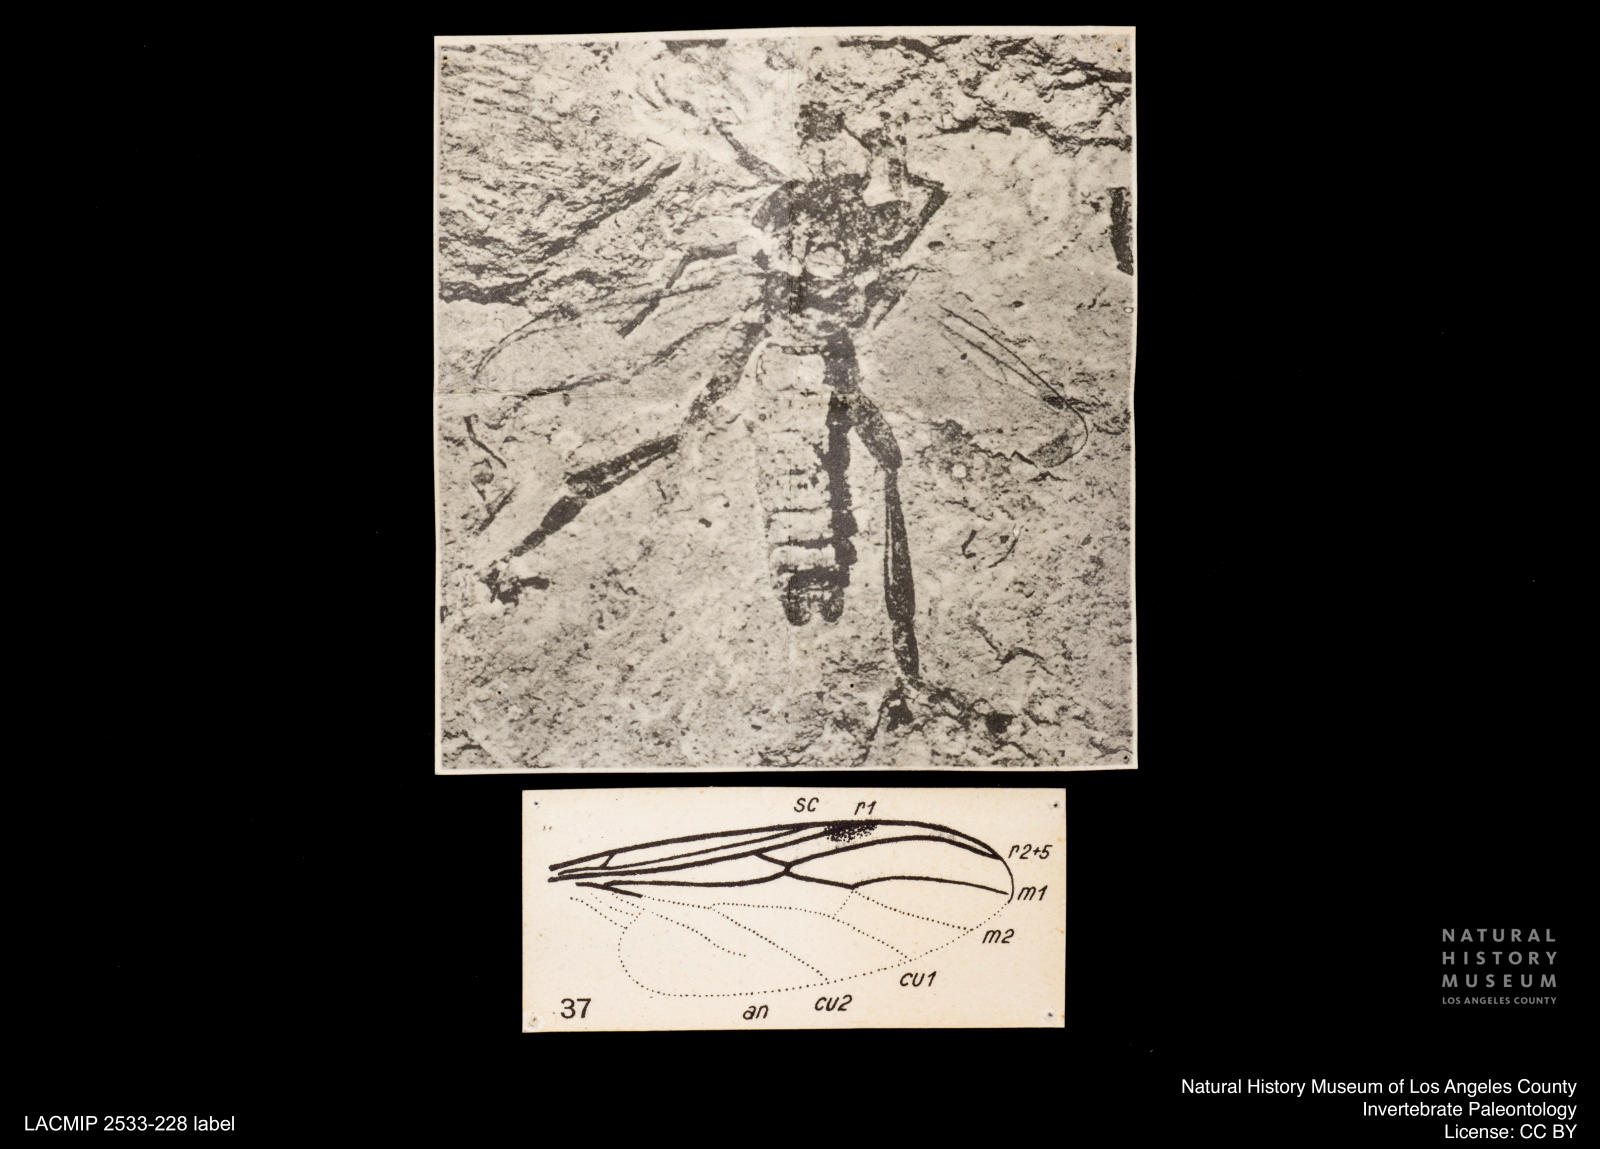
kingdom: Animalia
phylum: Arthropoda
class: Insecta
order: Diptera
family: Bibionidae
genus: Bibio
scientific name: Bibio
